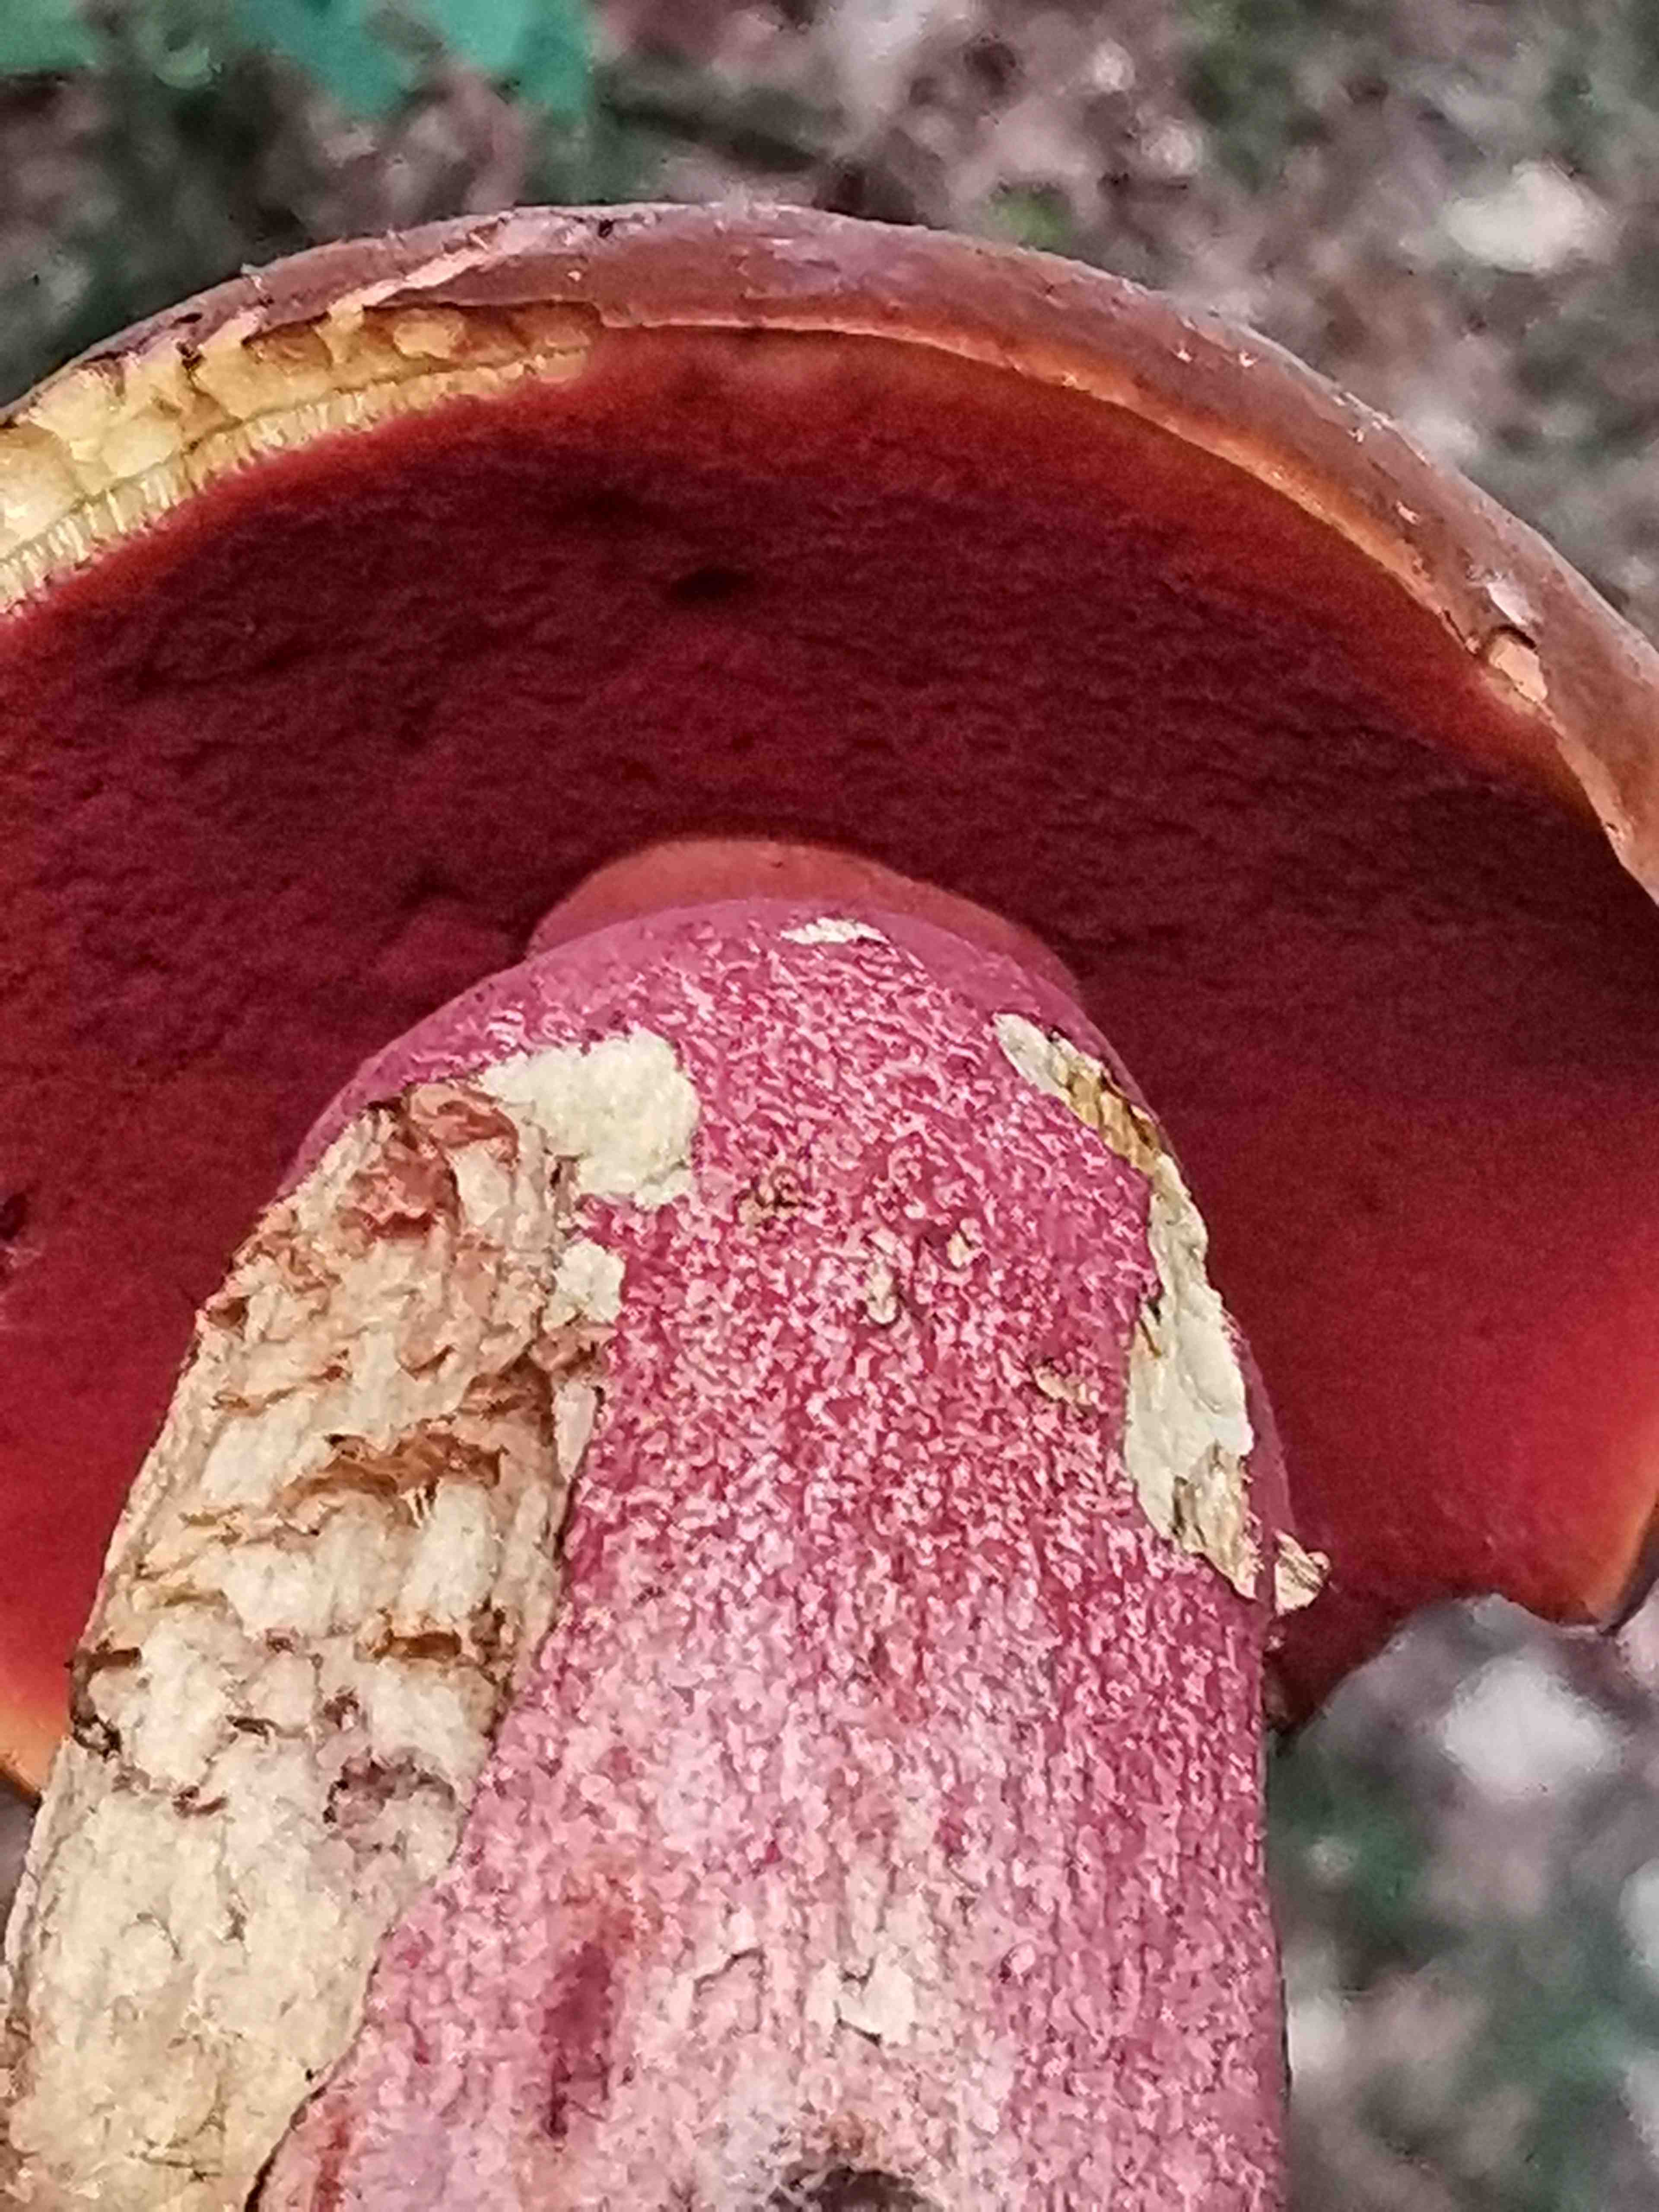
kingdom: Fungi
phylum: Basidiomycota
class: Agaricomycetes
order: Boletales
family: Boletaceae
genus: Neoboletus
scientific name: Neoboletus erythropus
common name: punktstokket indigorørhat
